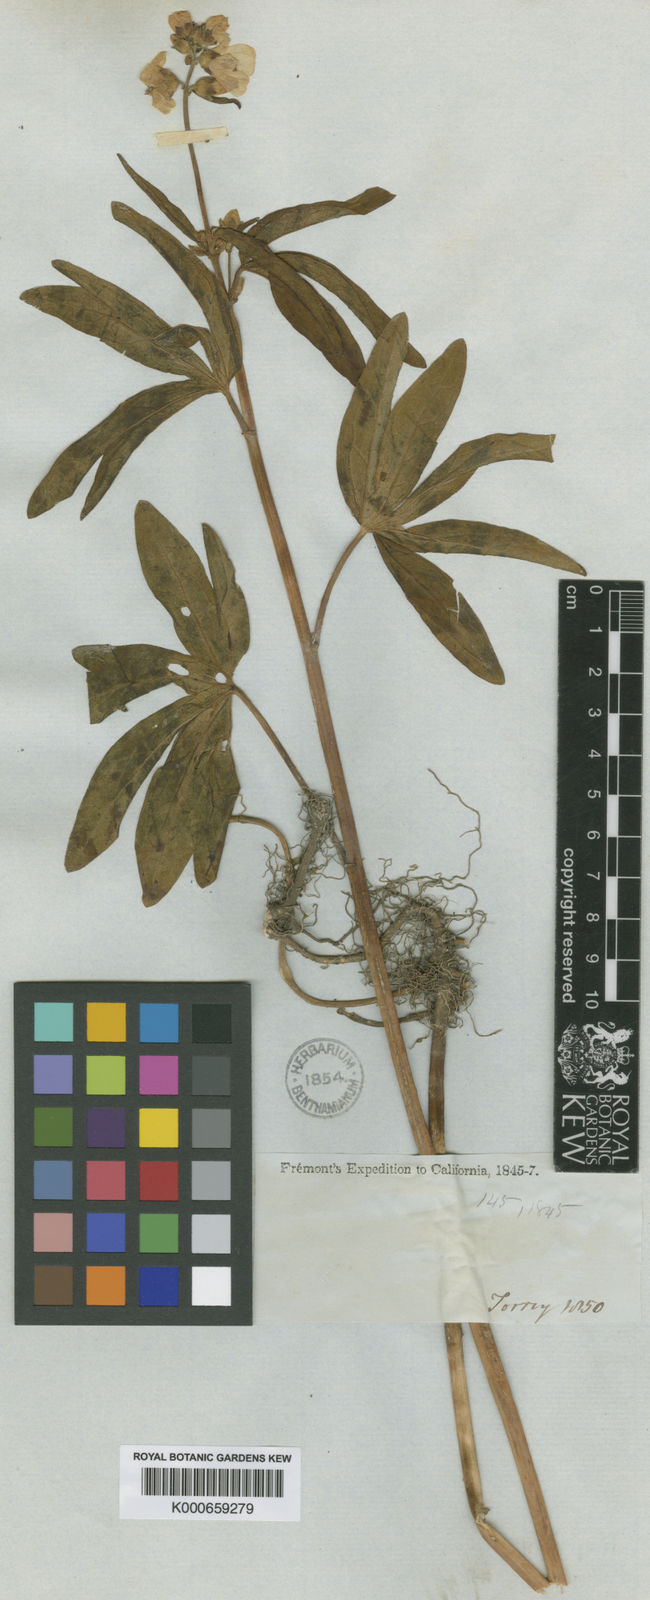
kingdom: Plantae
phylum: Tracheophyta
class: Magnoliopsida
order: Malvales
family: Malvaceae
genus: Sidalcea
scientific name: Sidalcea candida
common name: Prairie-mallow
